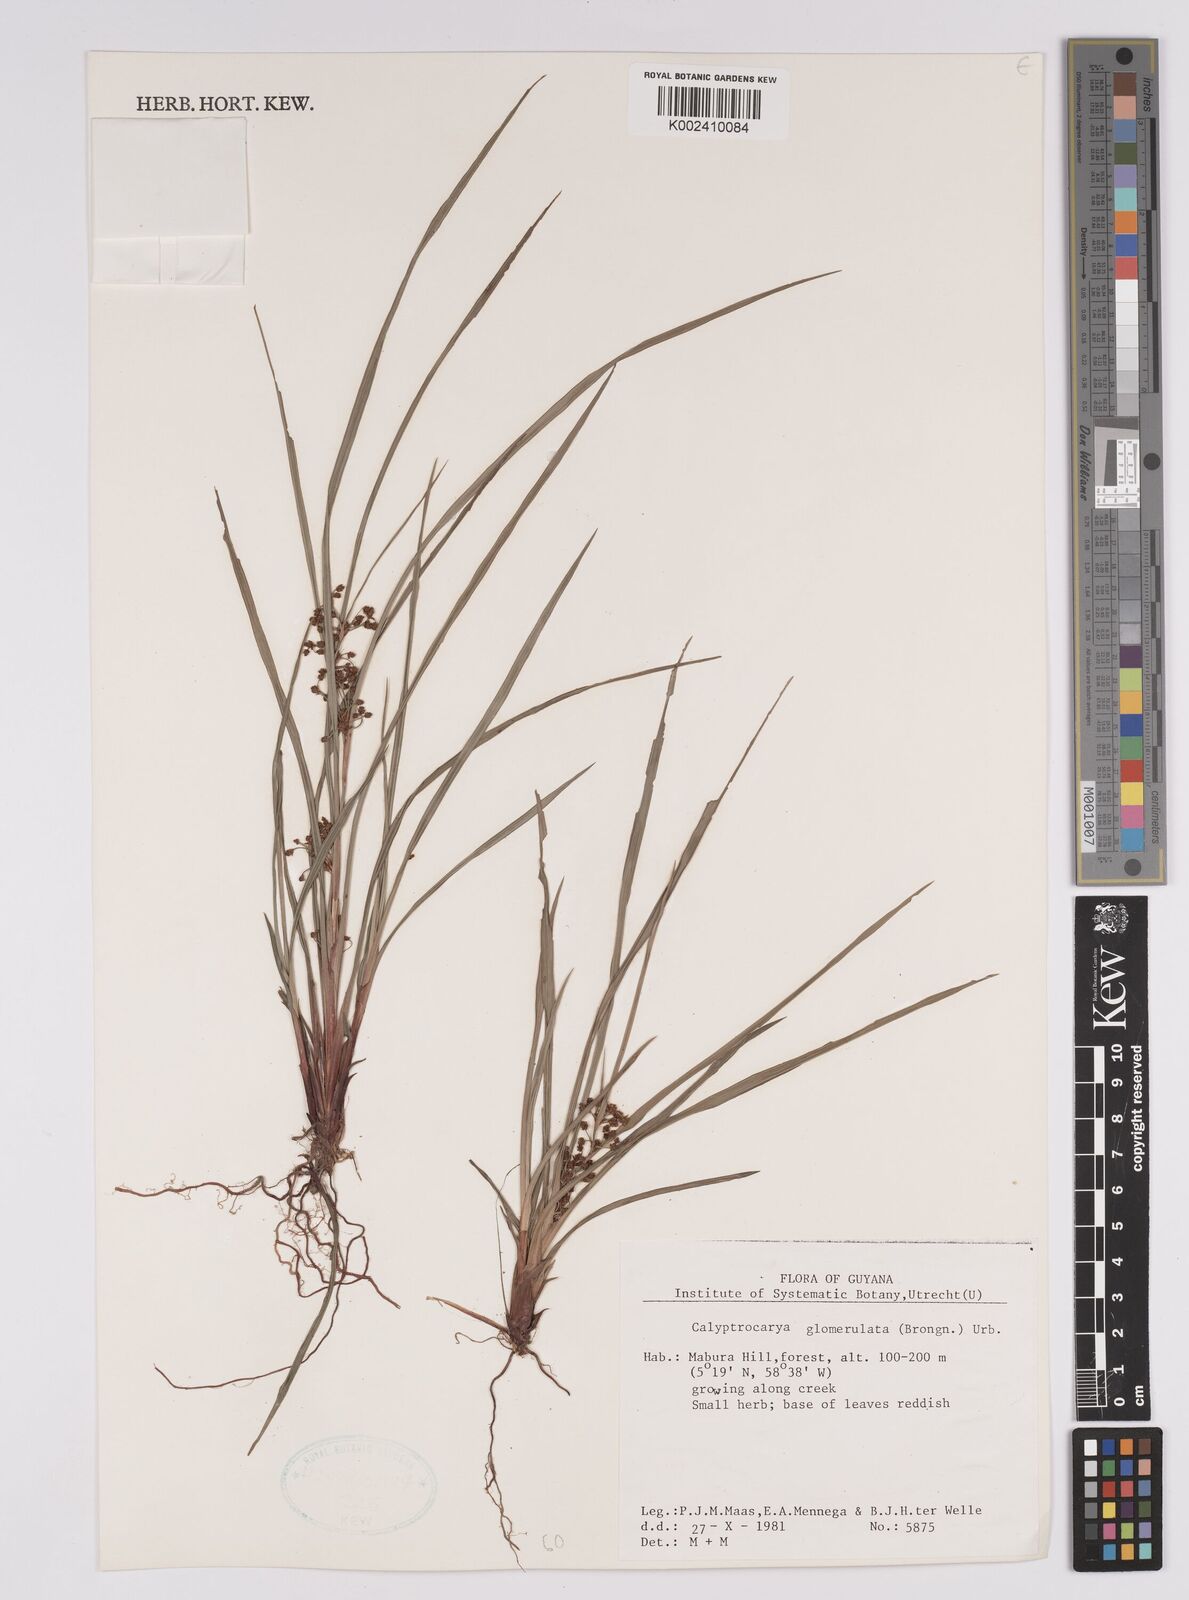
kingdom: Plantae
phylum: Tracheophyta
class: Liliopsida
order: Poales
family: Cyperaceae
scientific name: Cyperaceae
